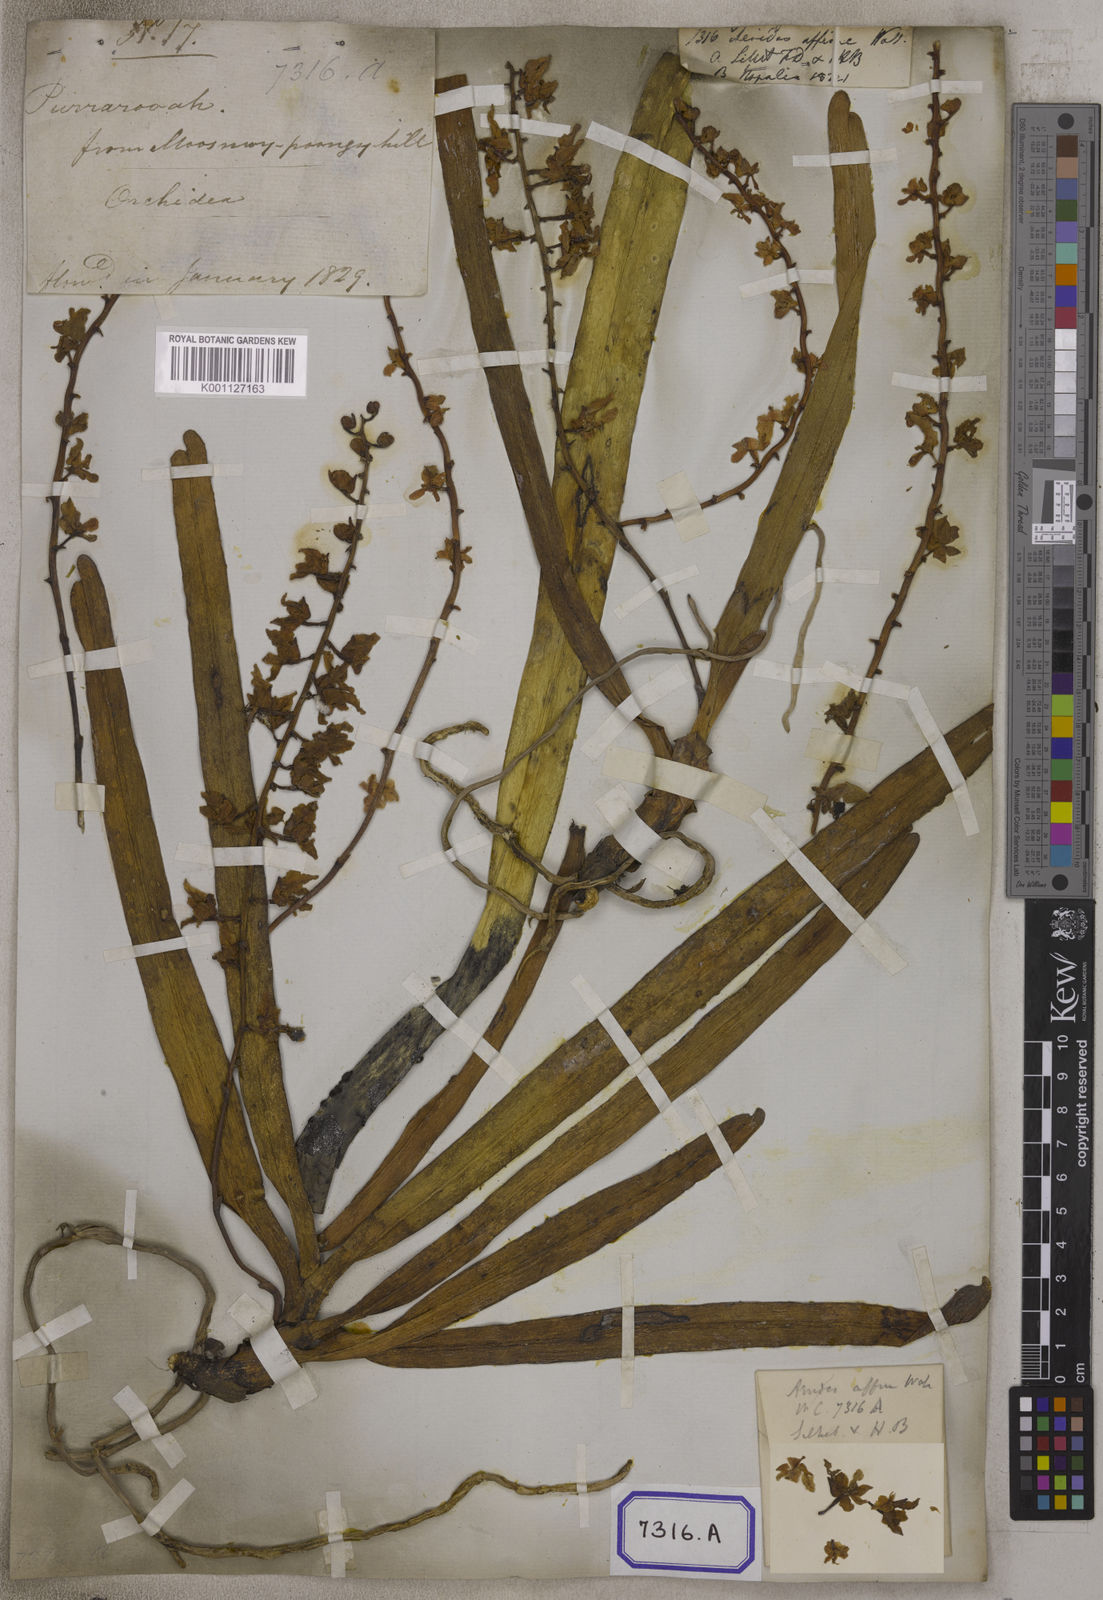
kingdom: Plantae
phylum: Tracheophyta
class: Liliopsida
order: Asparagales
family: Orchidaceae
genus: Aerides
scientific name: Aerides
